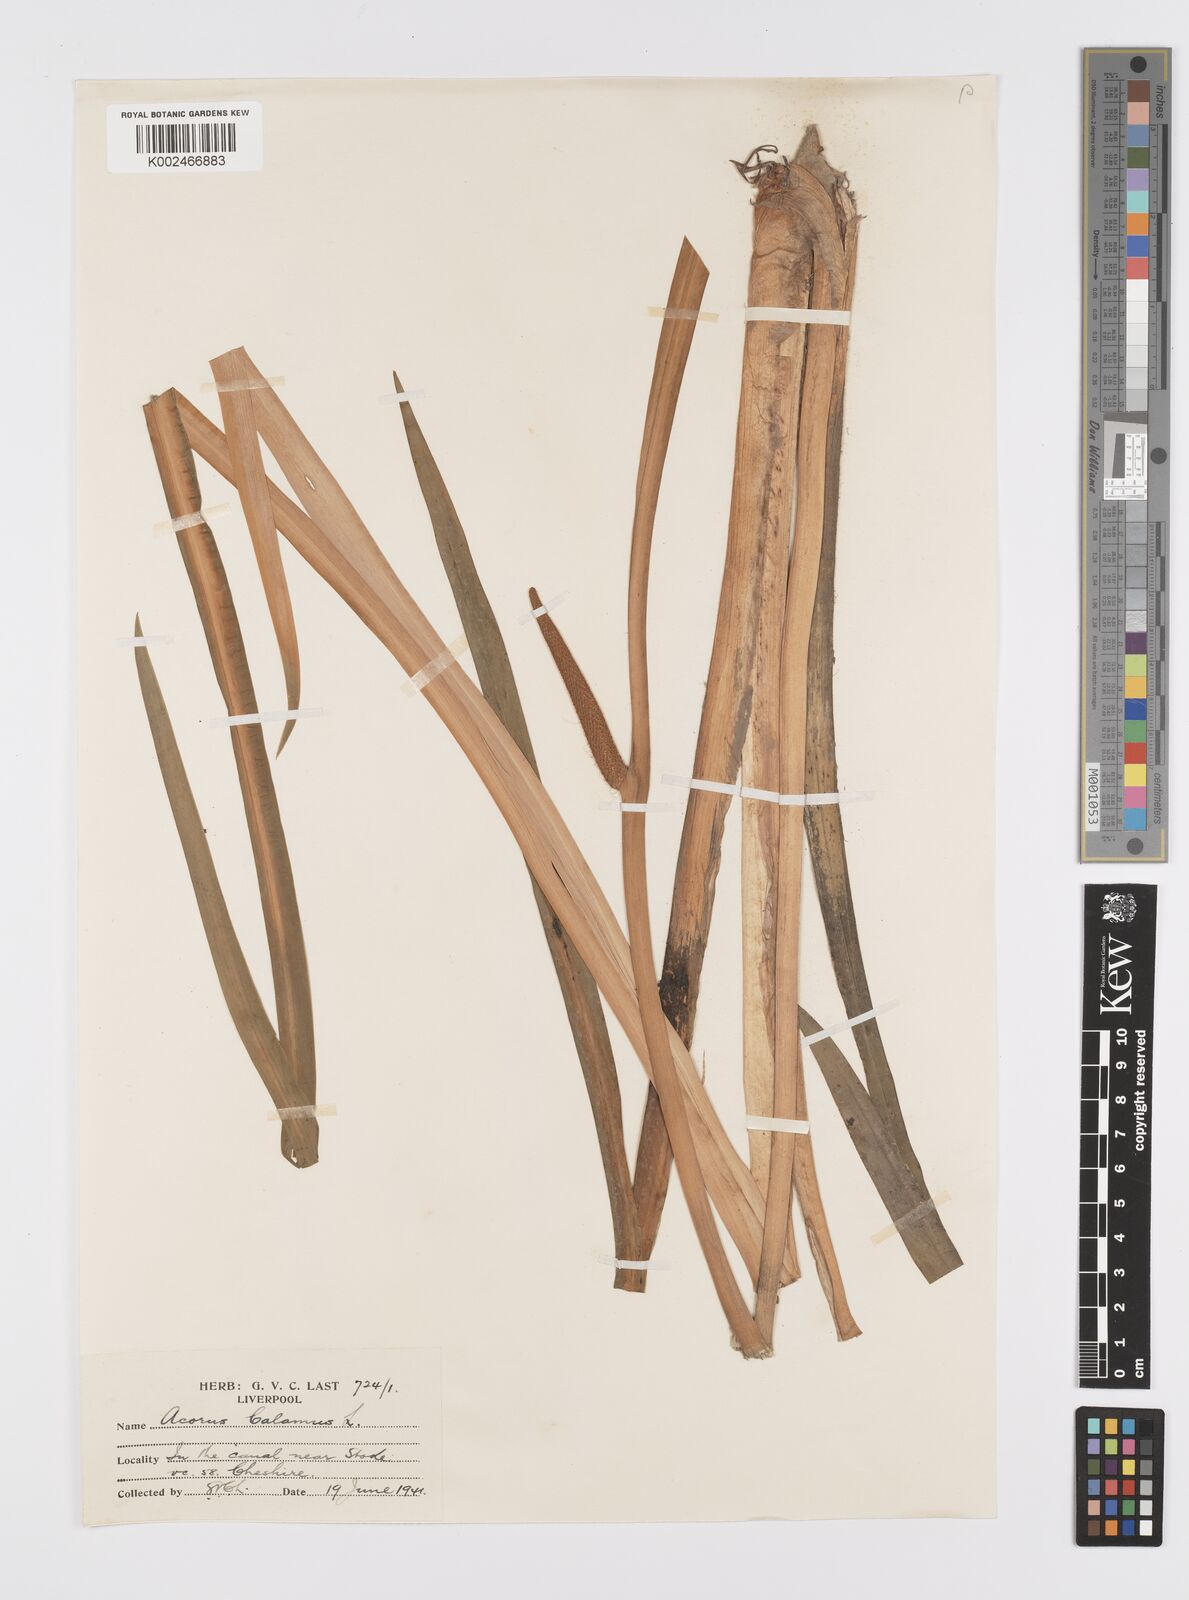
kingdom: Plantae
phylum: Tracheophyta
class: Liliopsida
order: Acorales
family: Acoraceae
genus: Acorus
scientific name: Acorus calamus
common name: Sweet-flag
